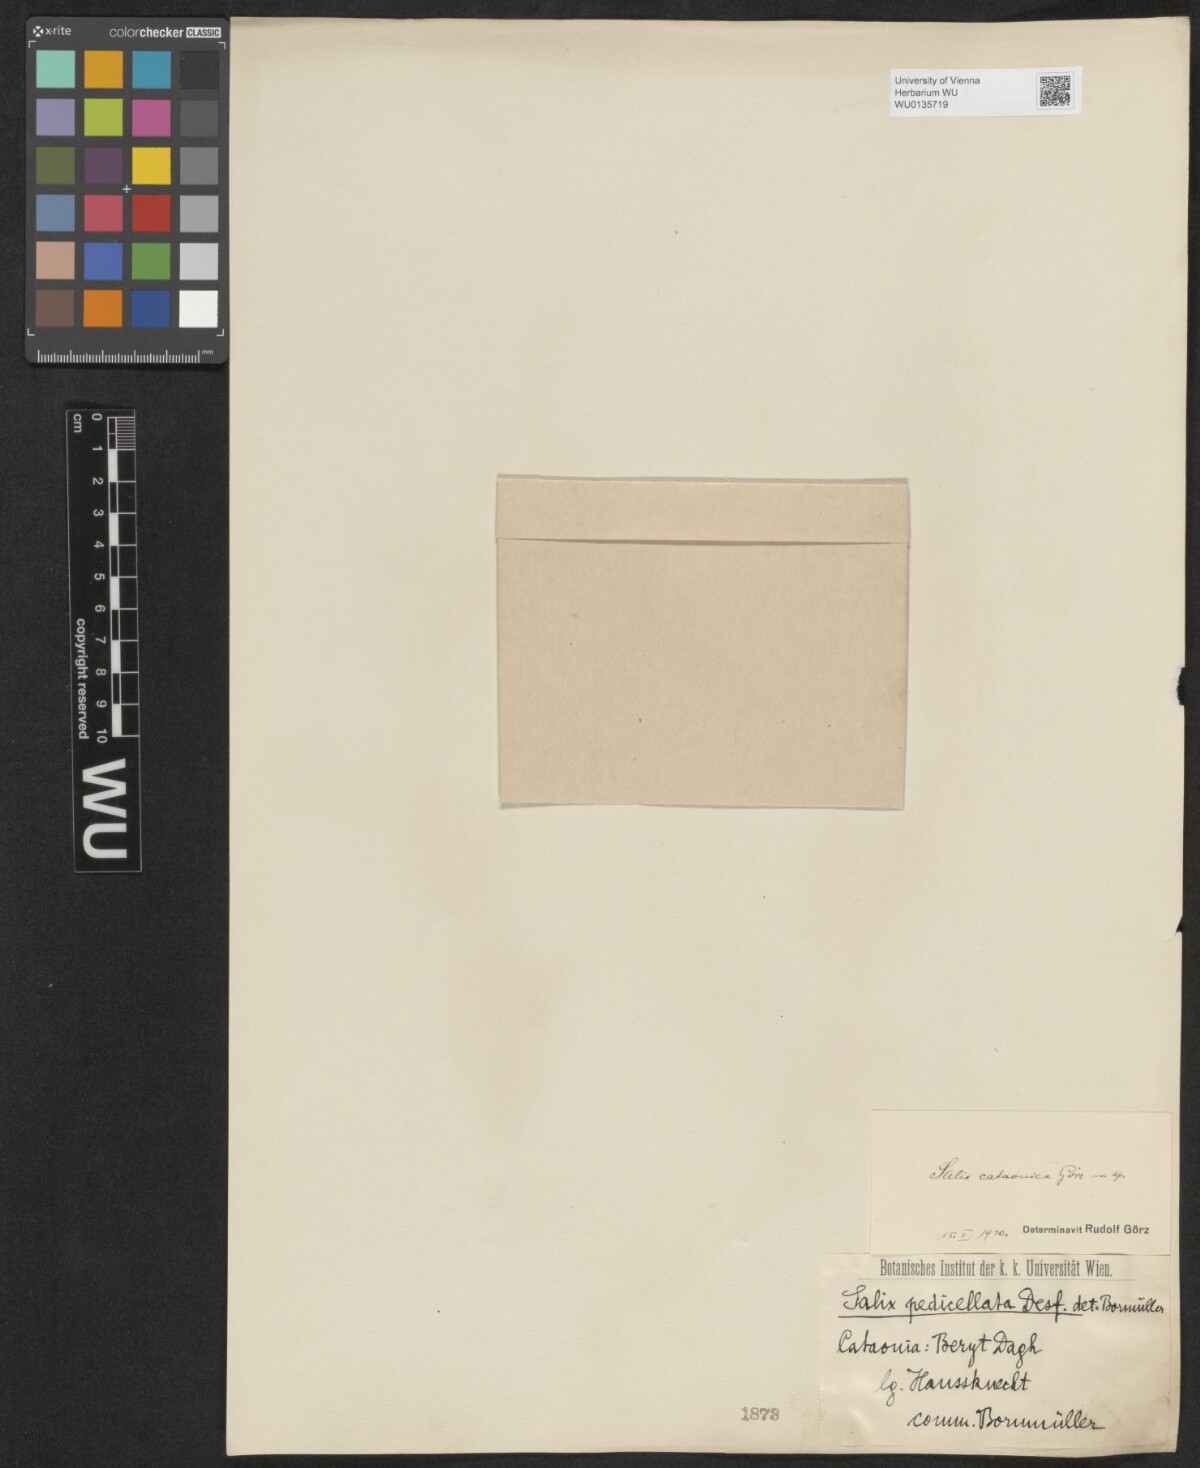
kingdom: Plantae
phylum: Tracheophyta
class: Magnoliopsida
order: Malpighiales
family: Salicaceae
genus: Salix
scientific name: Salix cataonica
